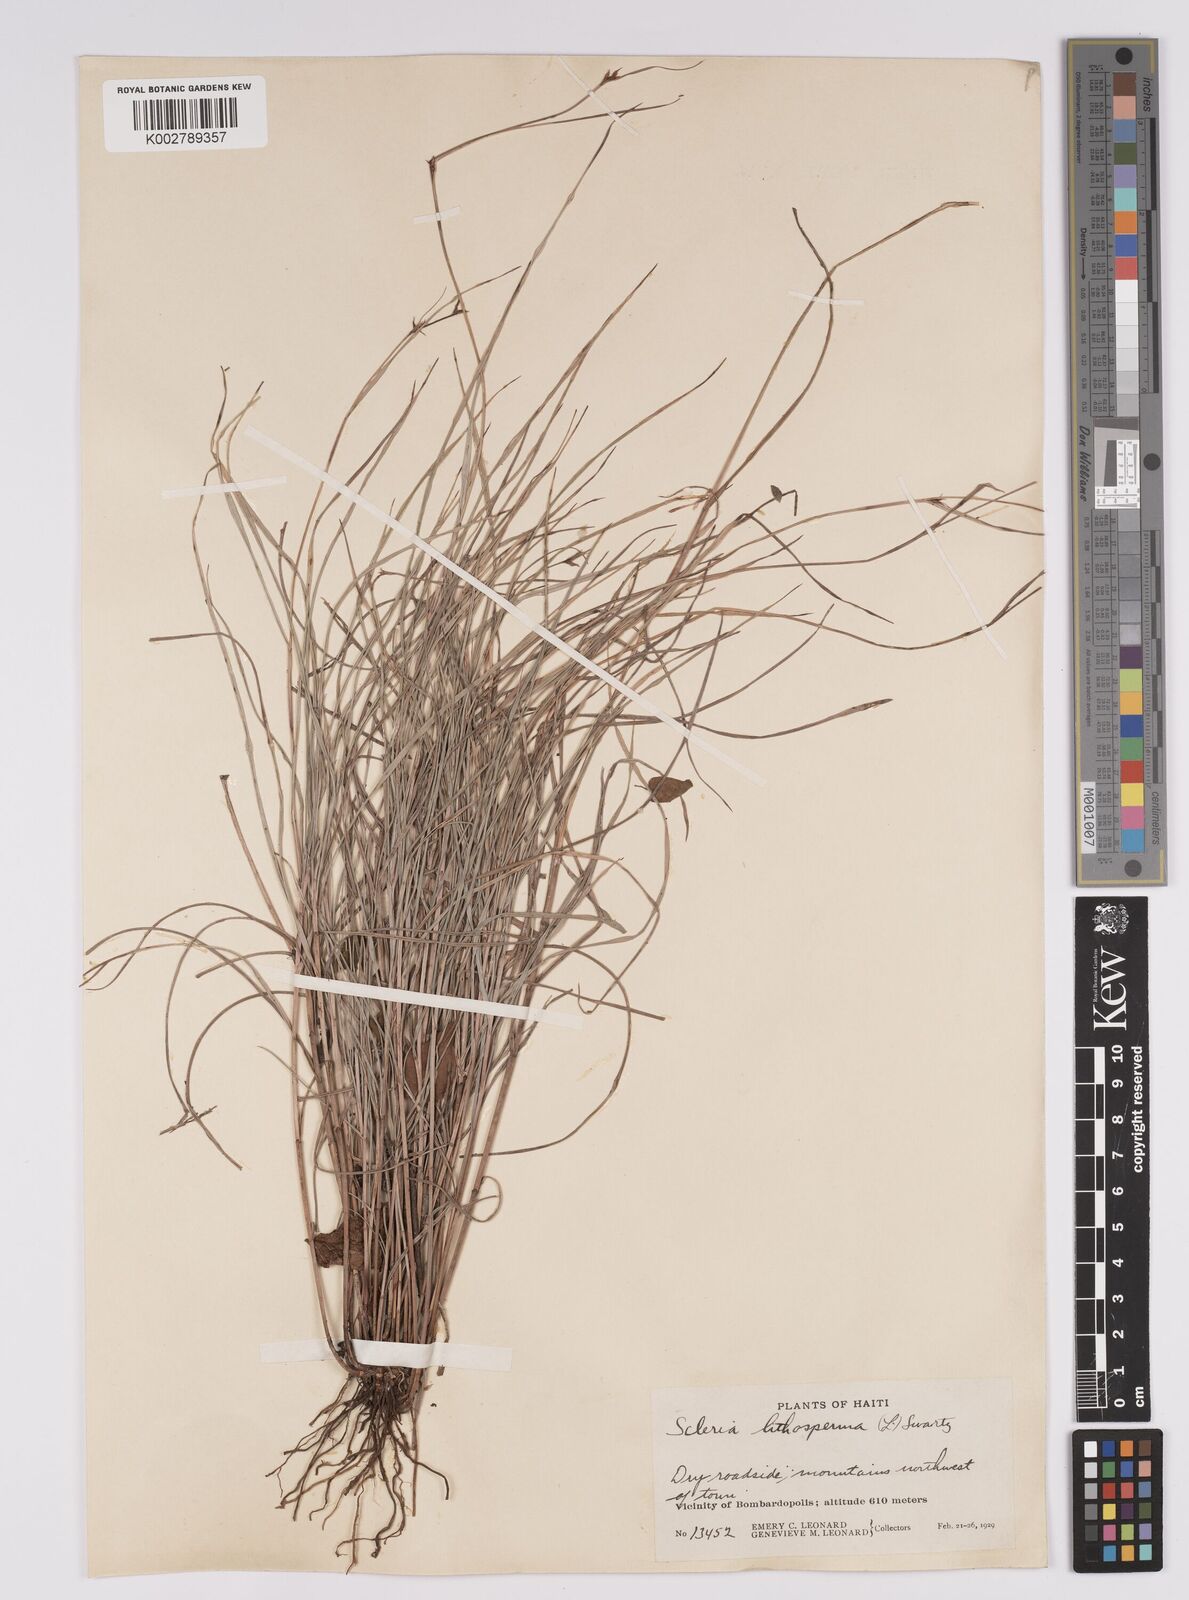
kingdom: Plantae
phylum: Tracheophyta
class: Liliopsida
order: Poales
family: Cyperaceae
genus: Scleria
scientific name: Scleria lithosperma
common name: Florida keys nut-rush
